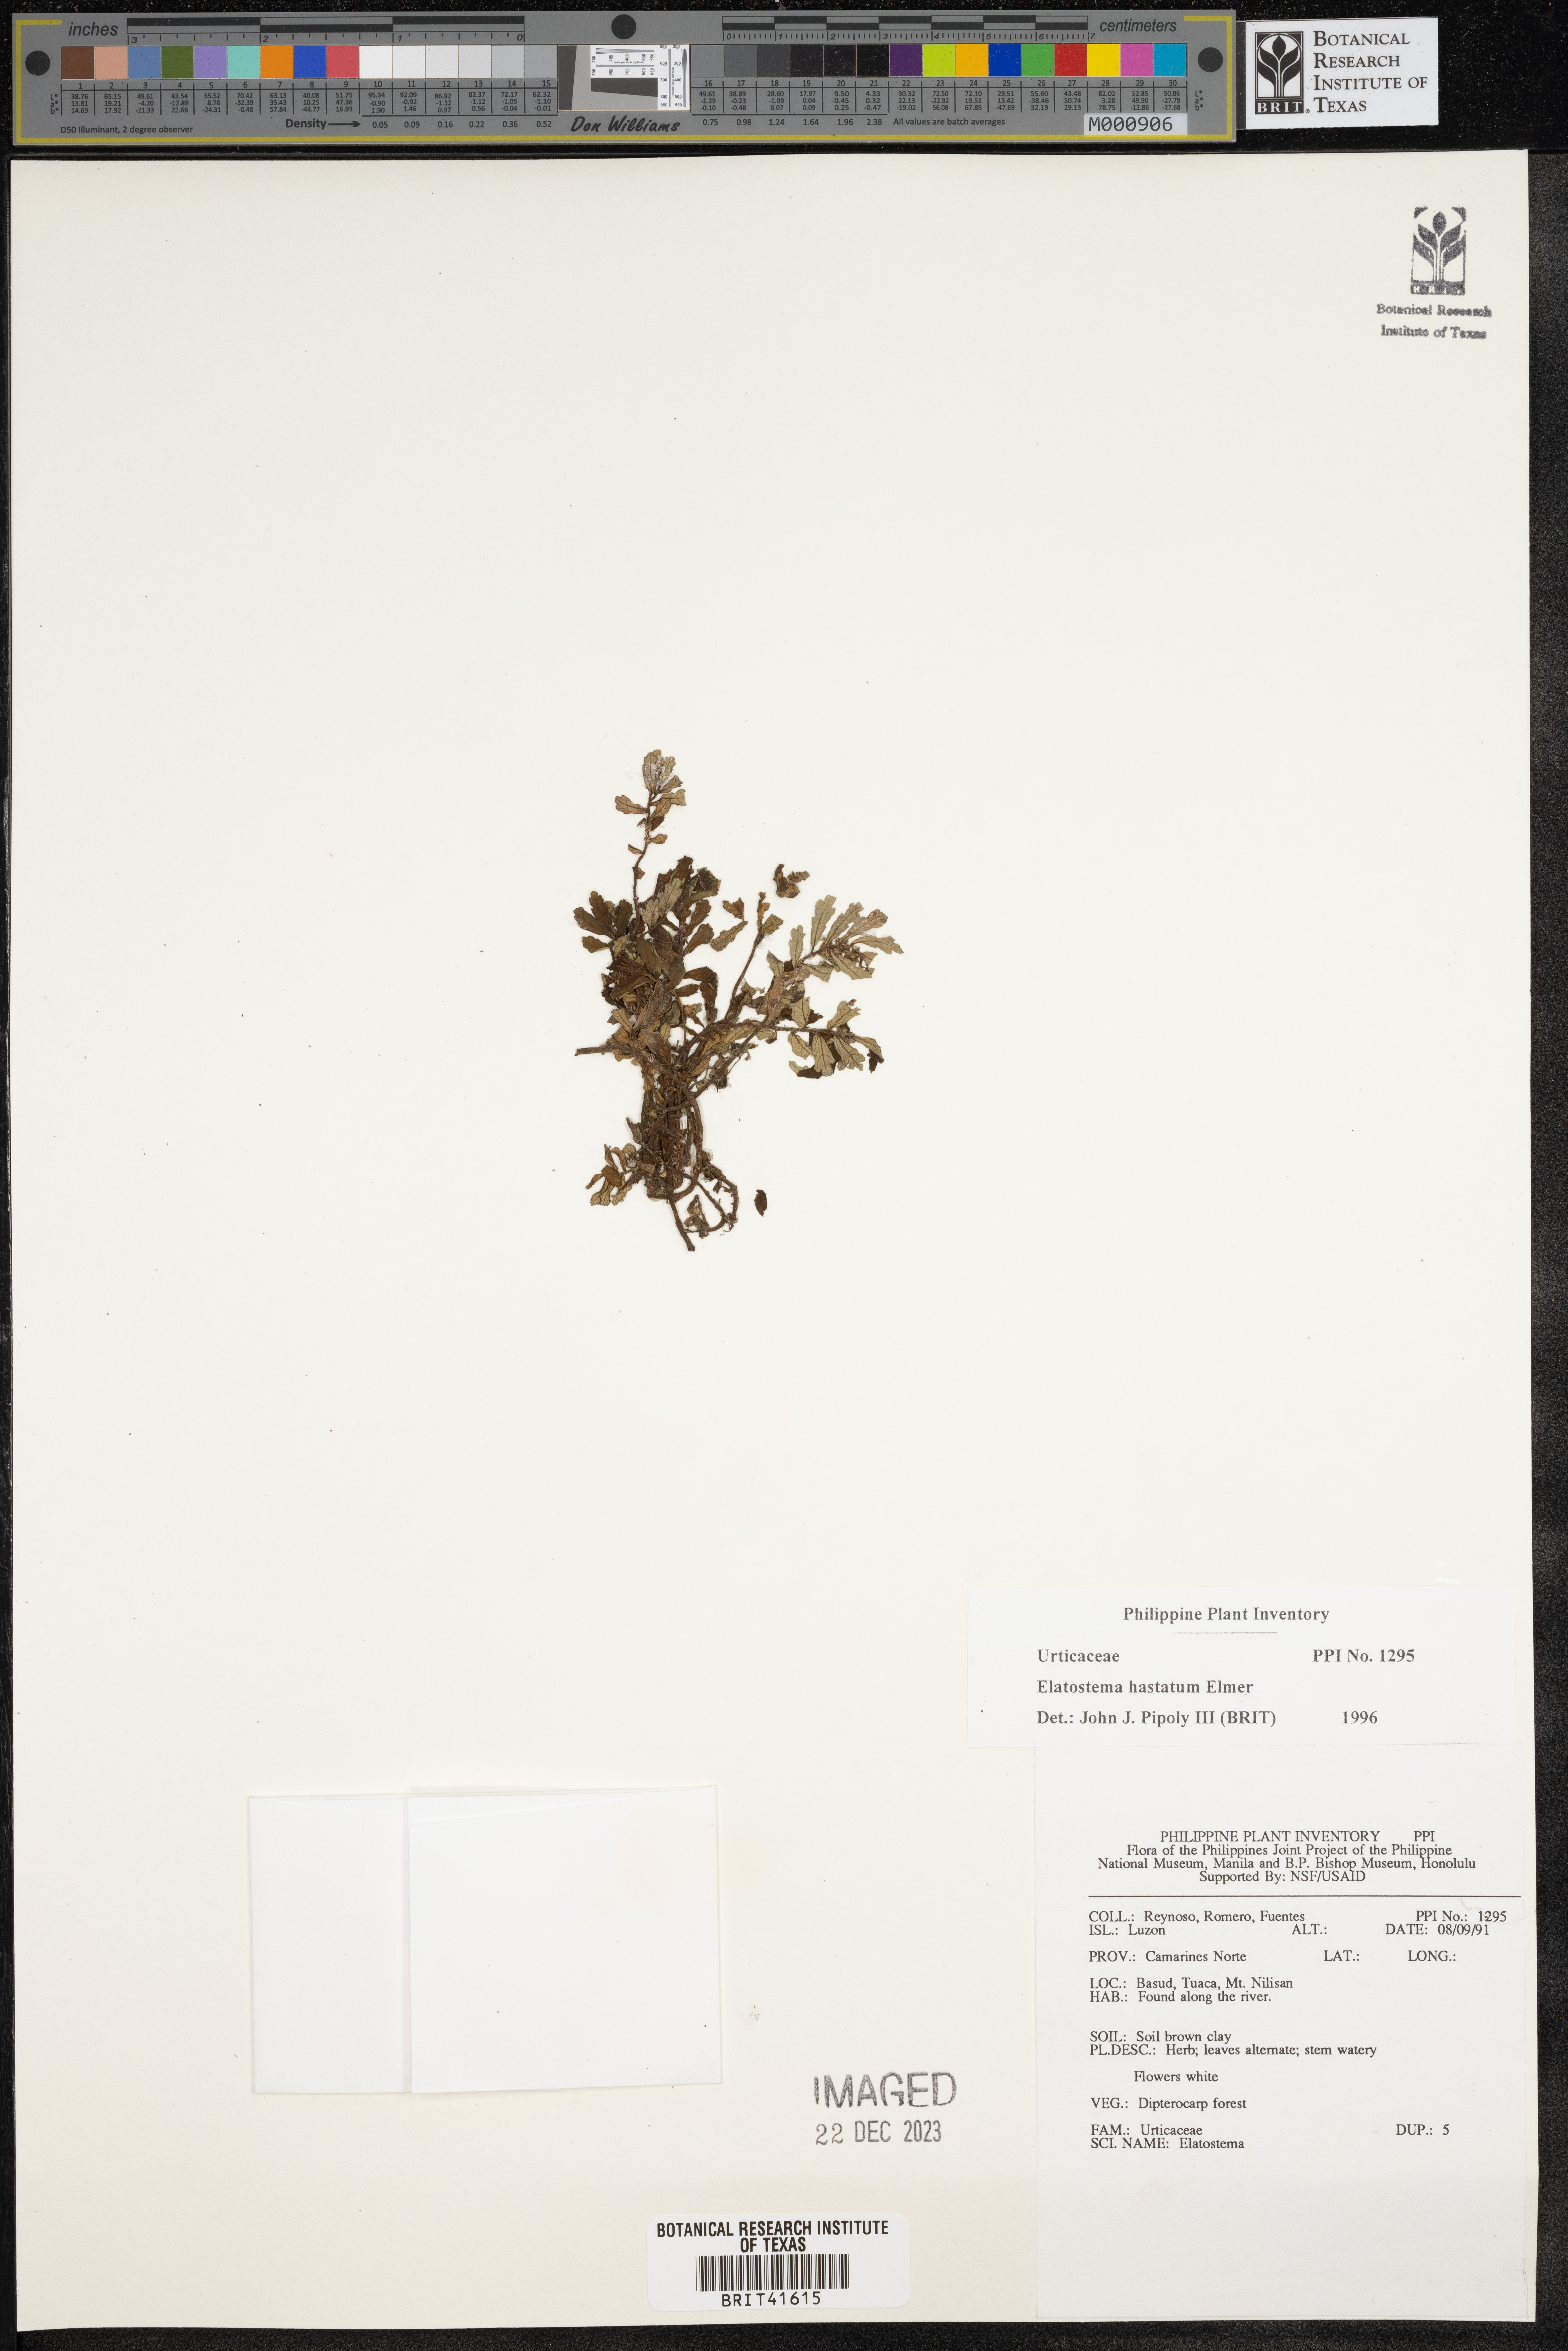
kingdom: Plantae
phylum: Tracheophyta
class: Magnoliopsida
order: Rosales
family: Urticaceae
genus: Elatostema
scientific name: Elatostema hastatum
